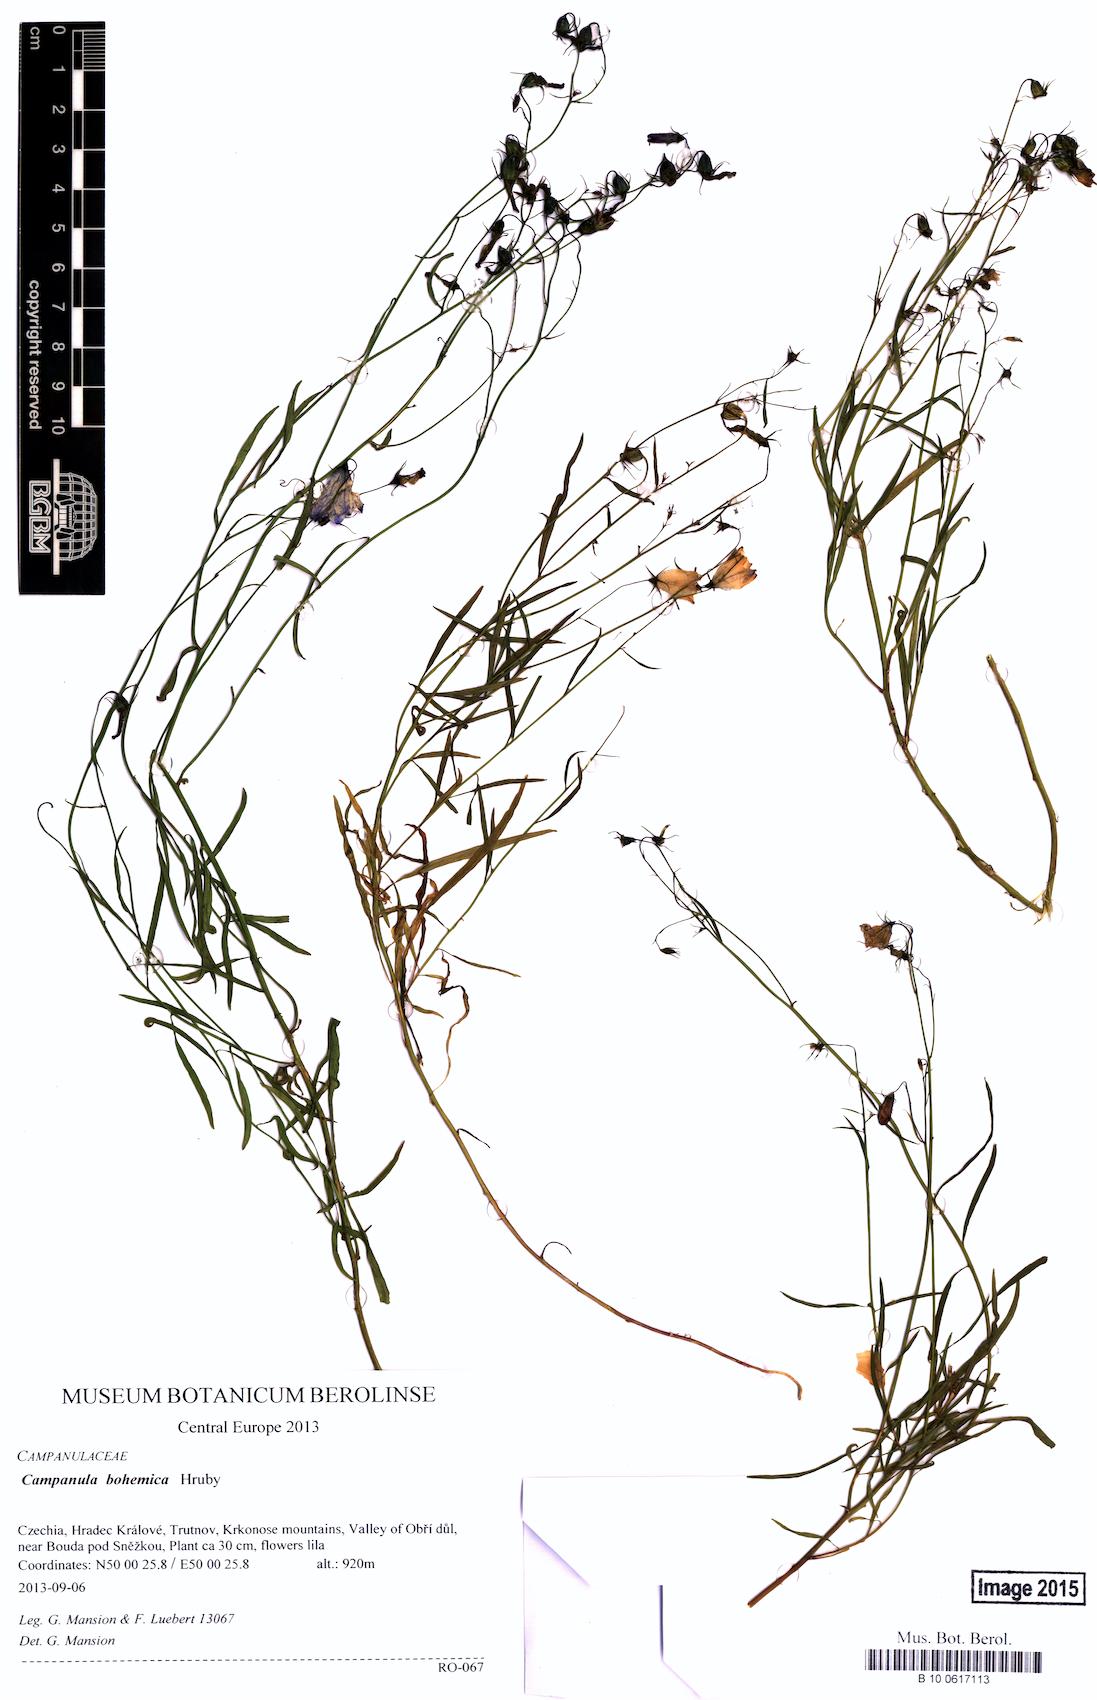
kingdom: Plantae
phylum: Tracheophyta
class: Magnoliopsida
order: Asterales
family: Campanulaceae
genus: Campanula
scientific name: Campanula bohemica
